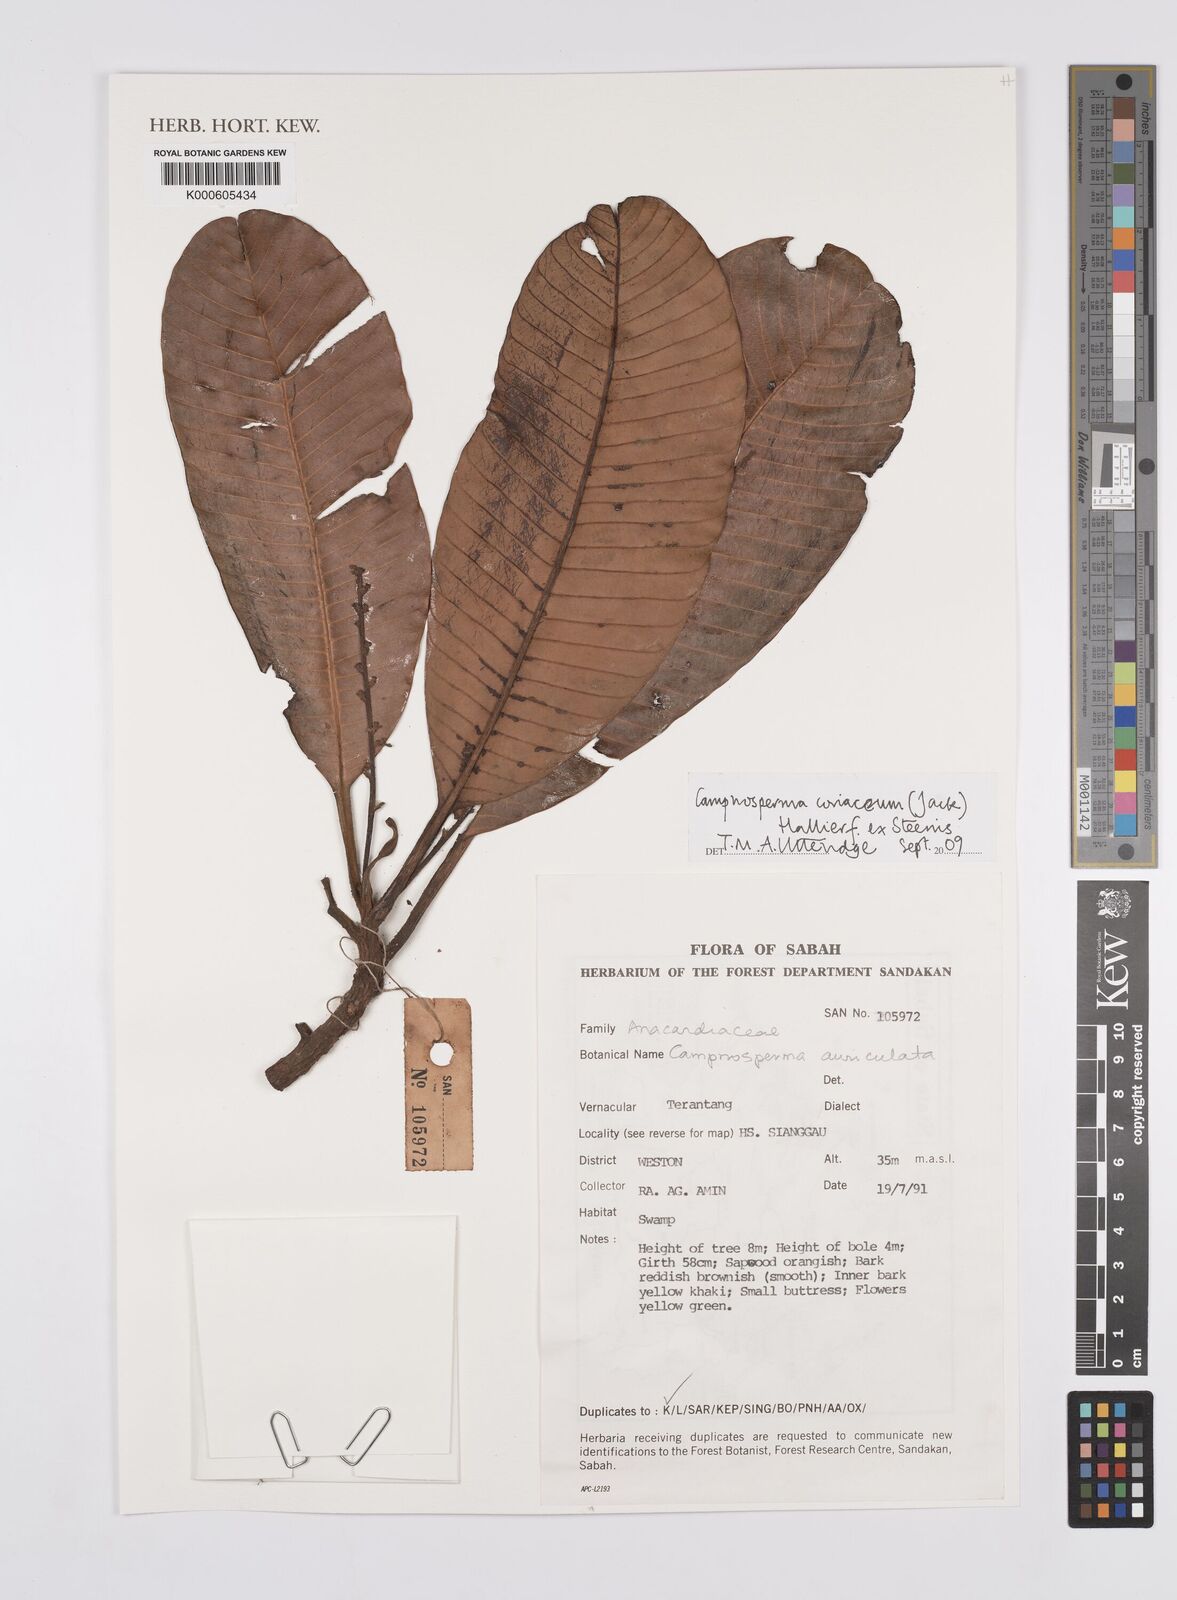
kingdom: Plantae
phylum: Tracheophyta
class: Magnoliopsida
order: Sapindales
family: Anacardiaceae
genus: Campnosperma
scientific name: Campnosperma
